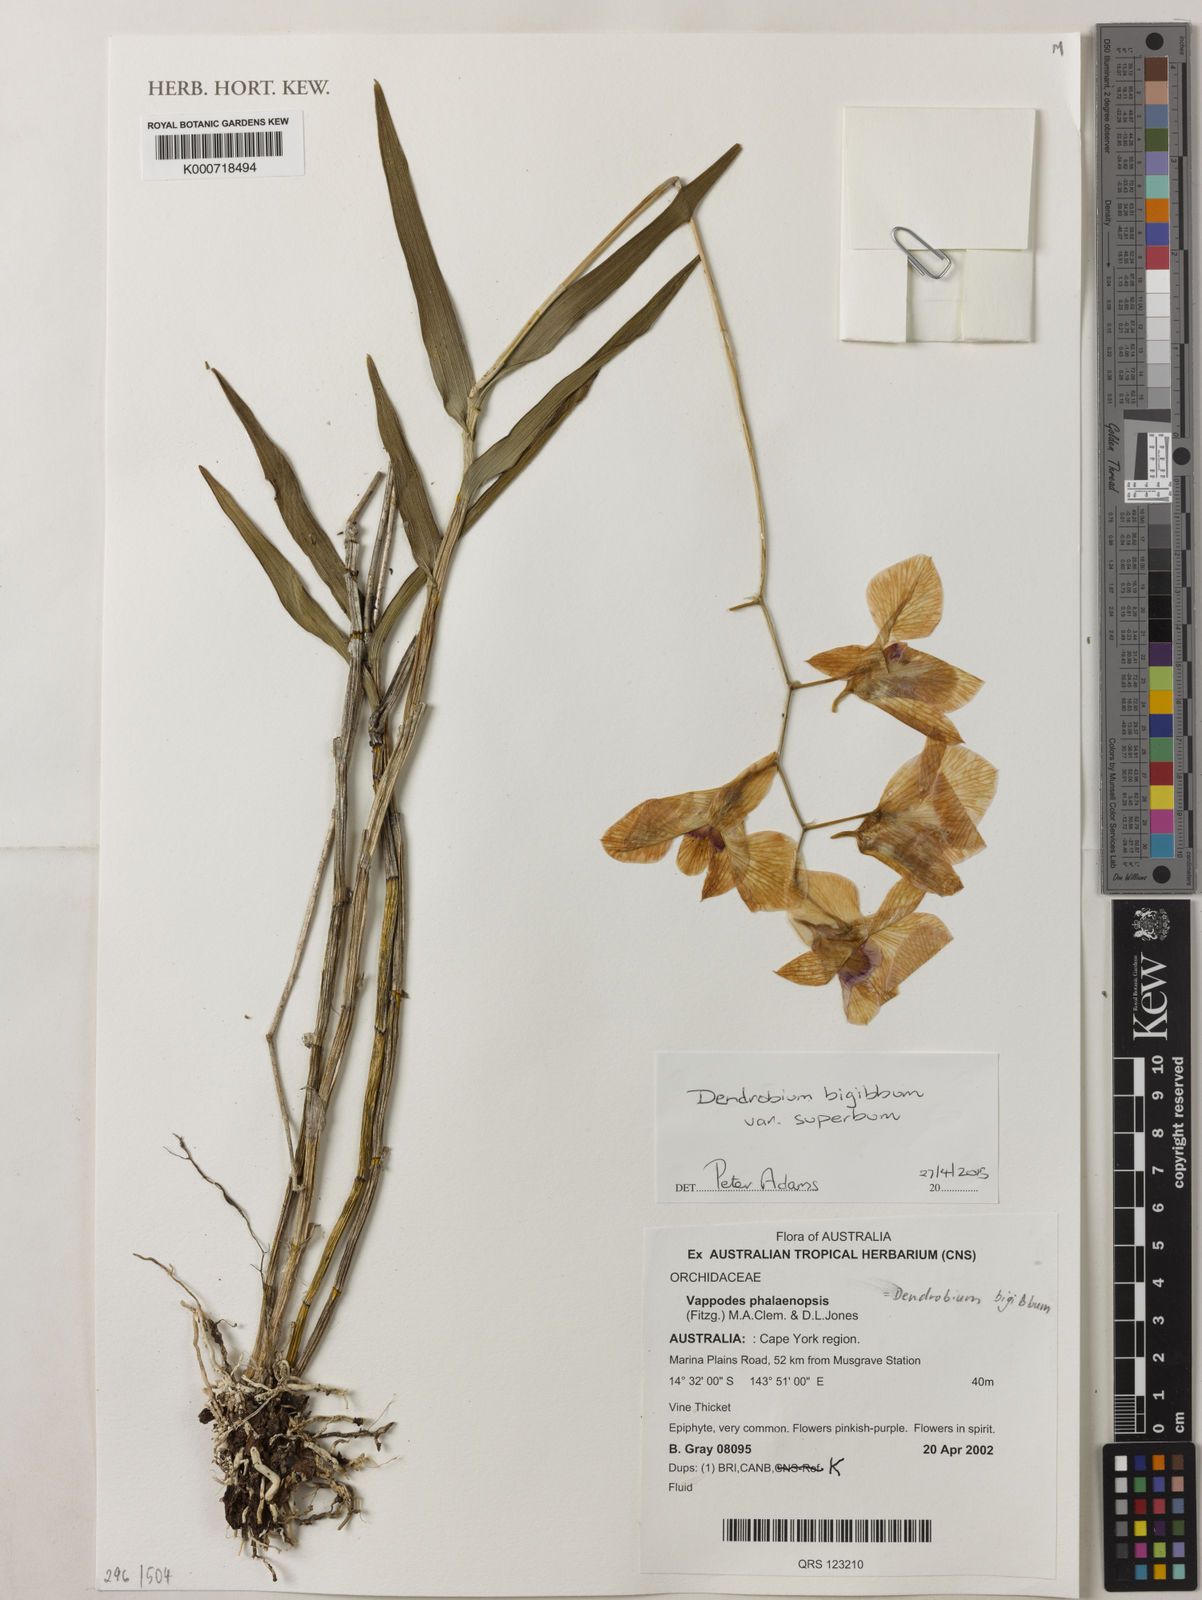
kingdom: Plantae
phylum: Tracheophyta
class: Liliopsida
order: Asparagales
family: Orchidaceae
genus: Dendrobium
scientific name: Dendrobium bigibbum
